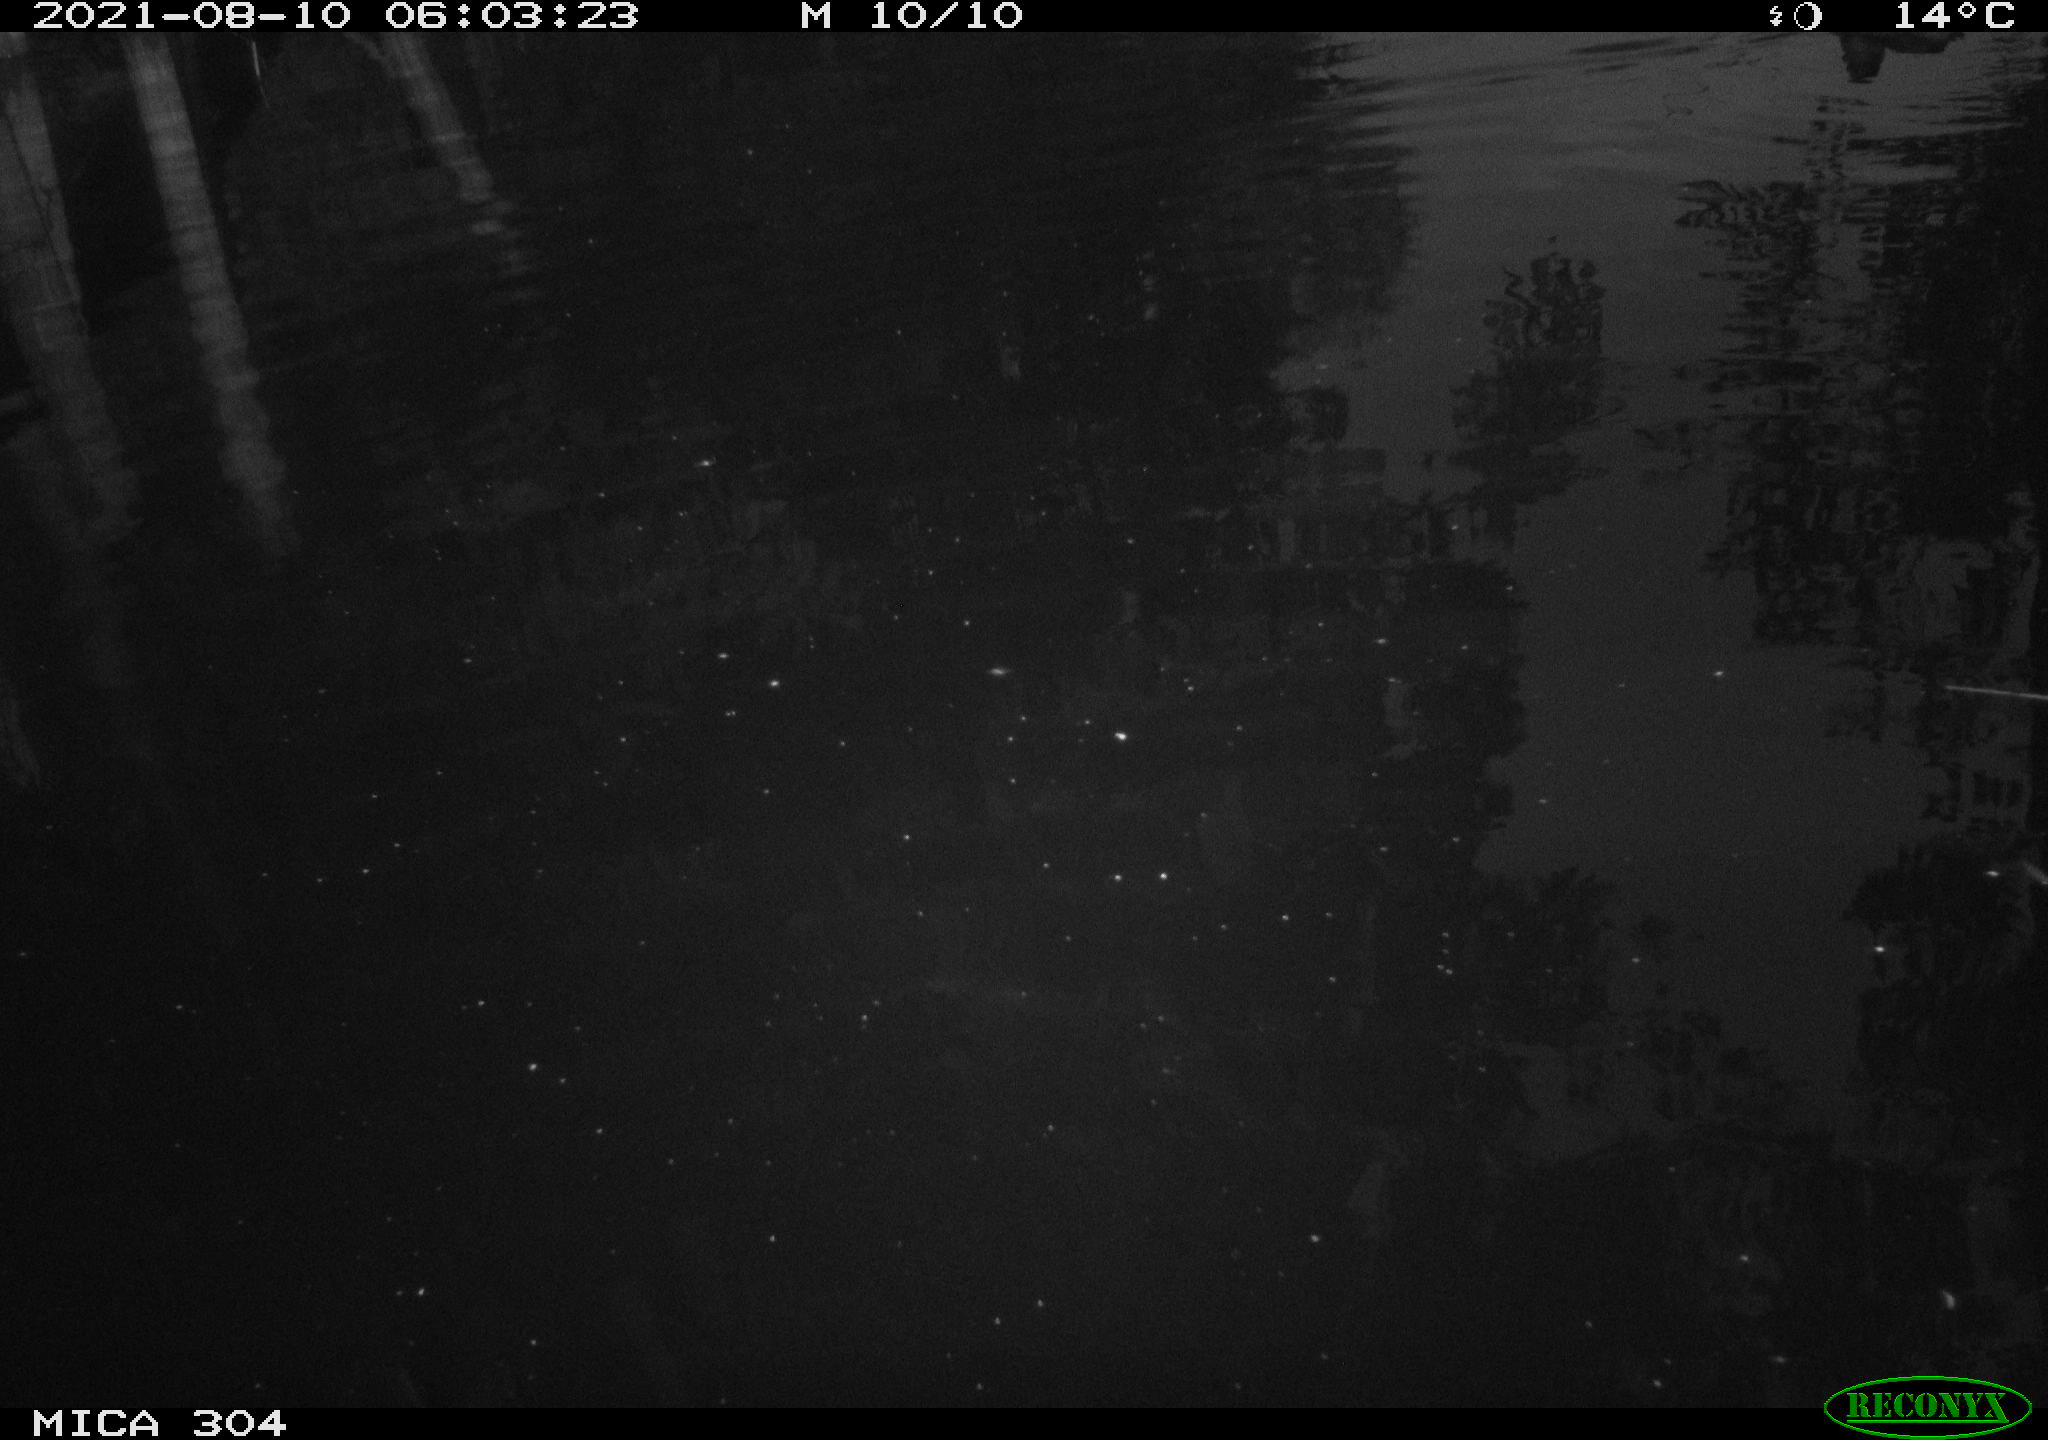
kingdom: Animalia
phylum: Chordata
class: Aves
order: Anseriformes
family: Anatidae
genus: Anas
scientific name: Anas platyrhynchos
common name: Mallard
